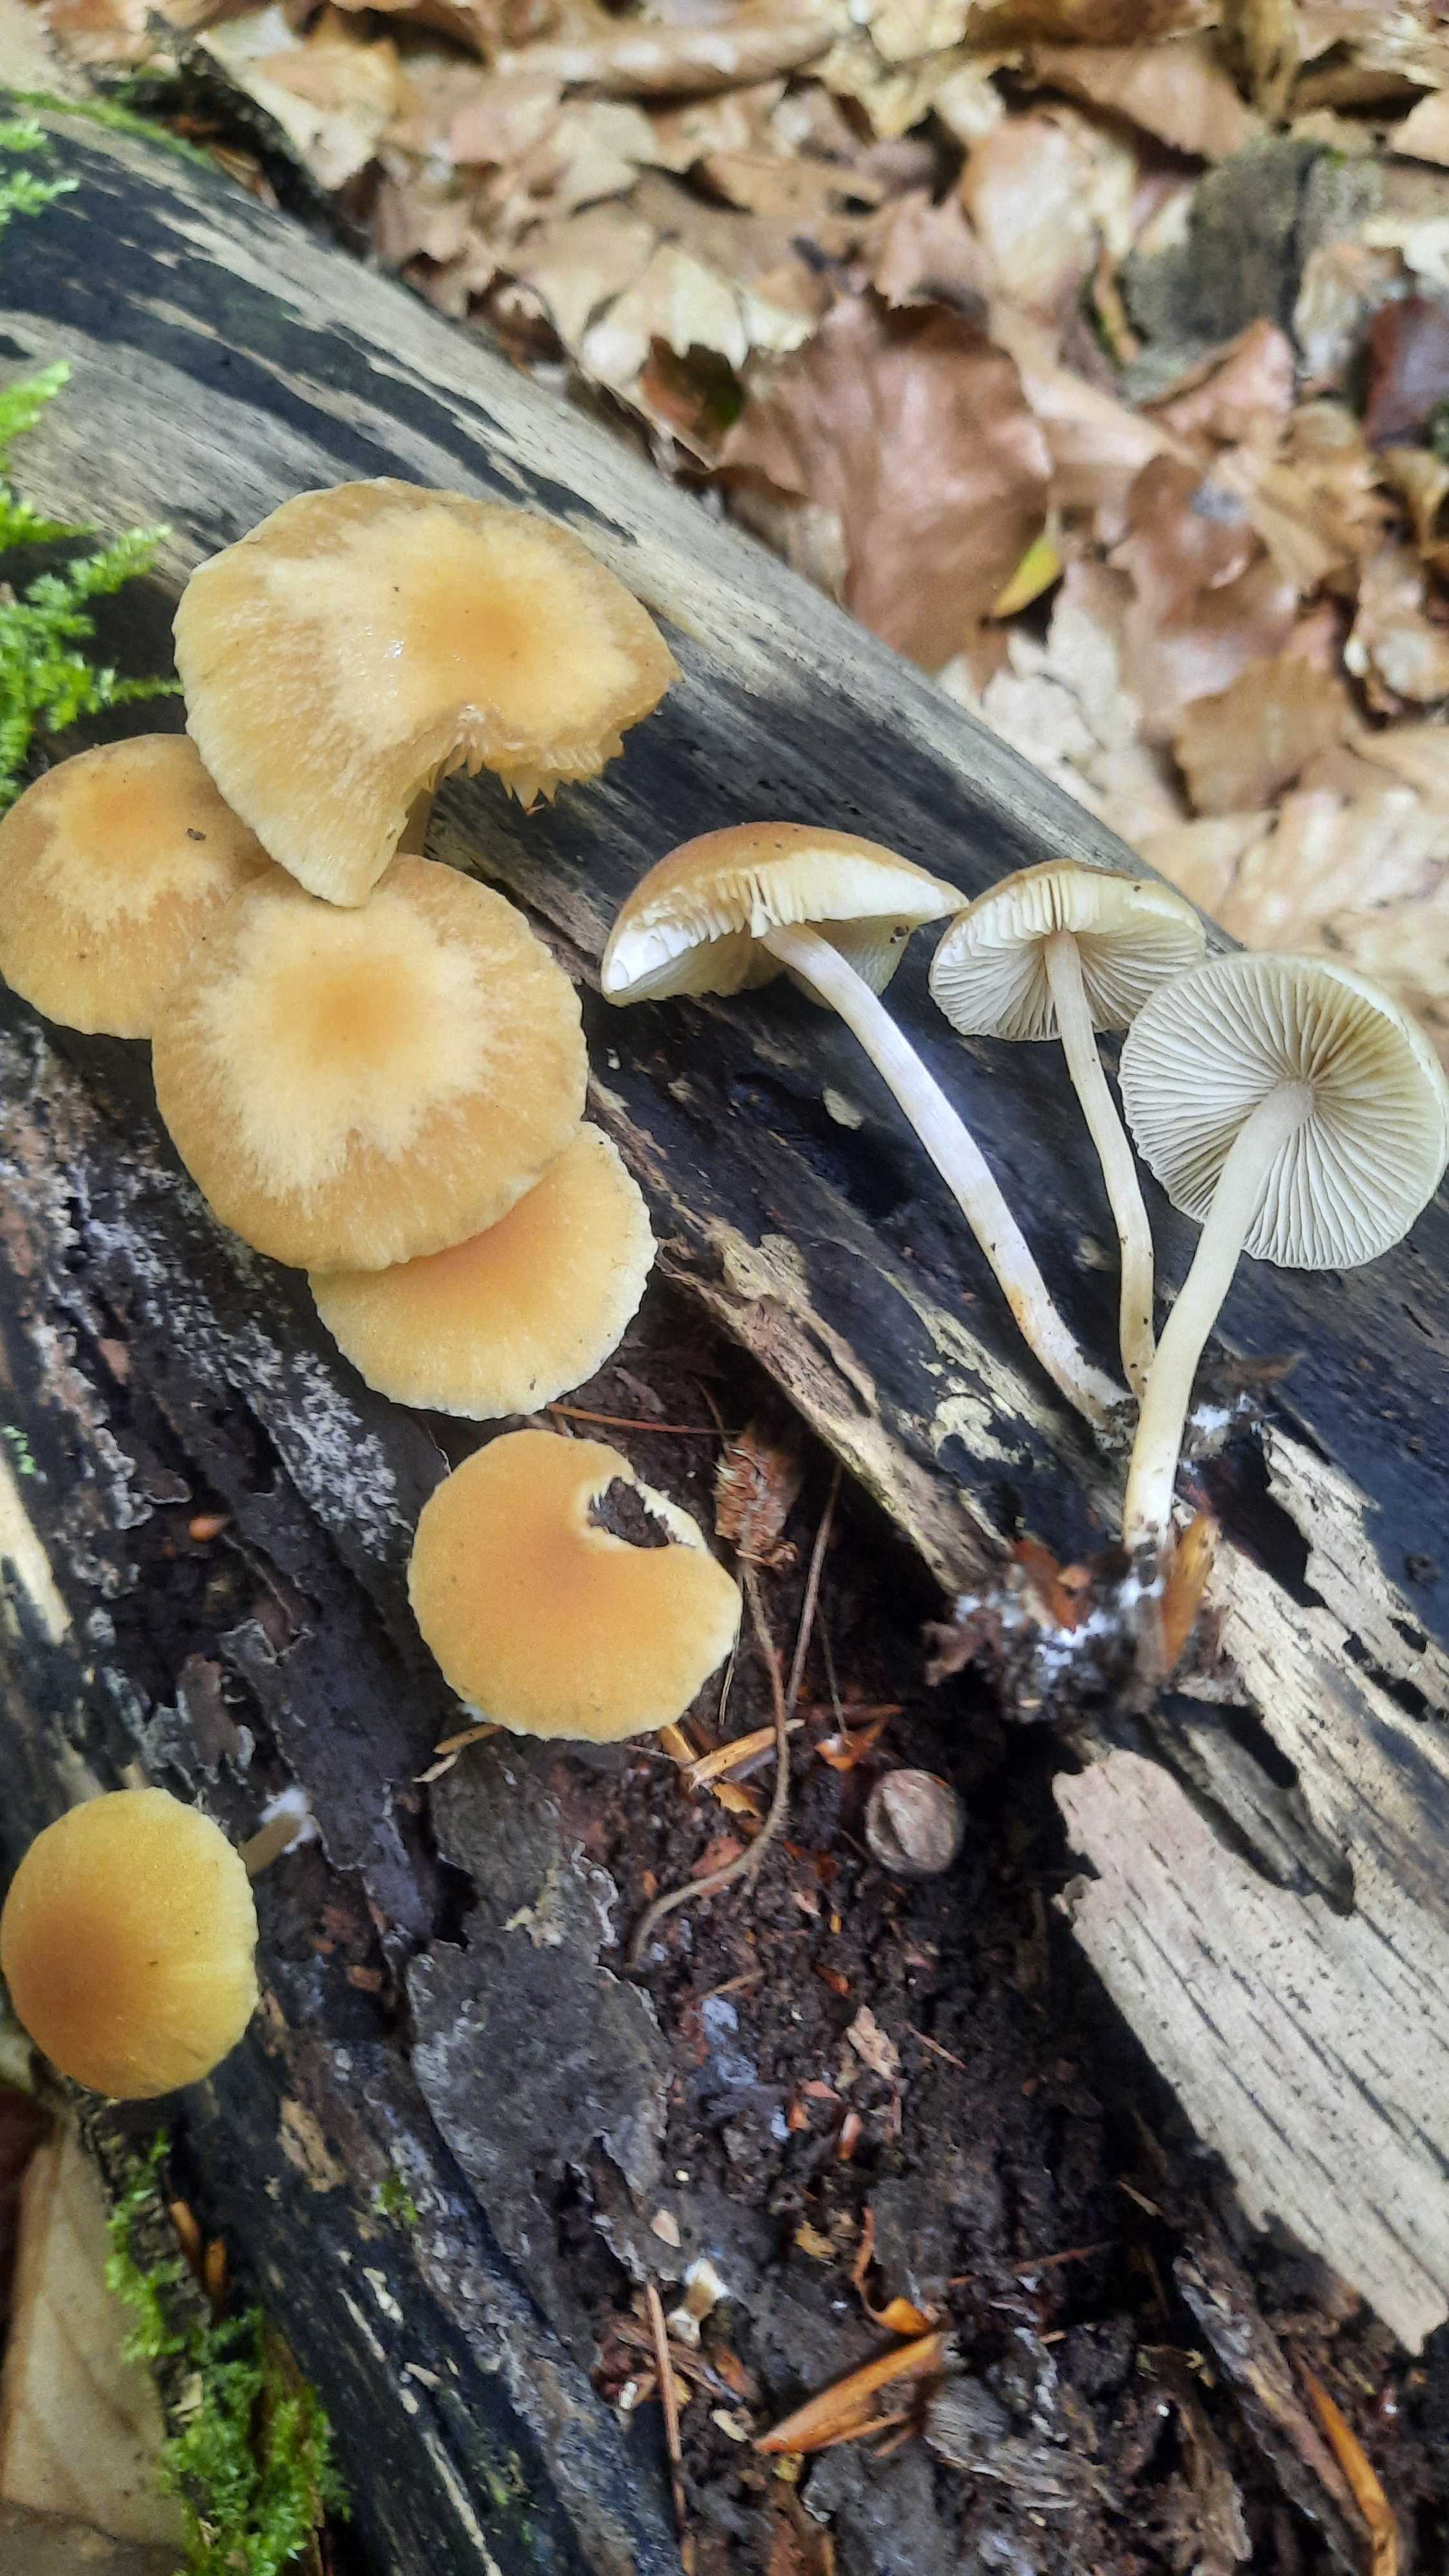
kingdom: Fungi
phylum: Basidiomycota
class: Agaricomycetes
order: Agaricales
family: Psathyrellaceae
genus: Psathyrella
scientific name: Psathyrella
